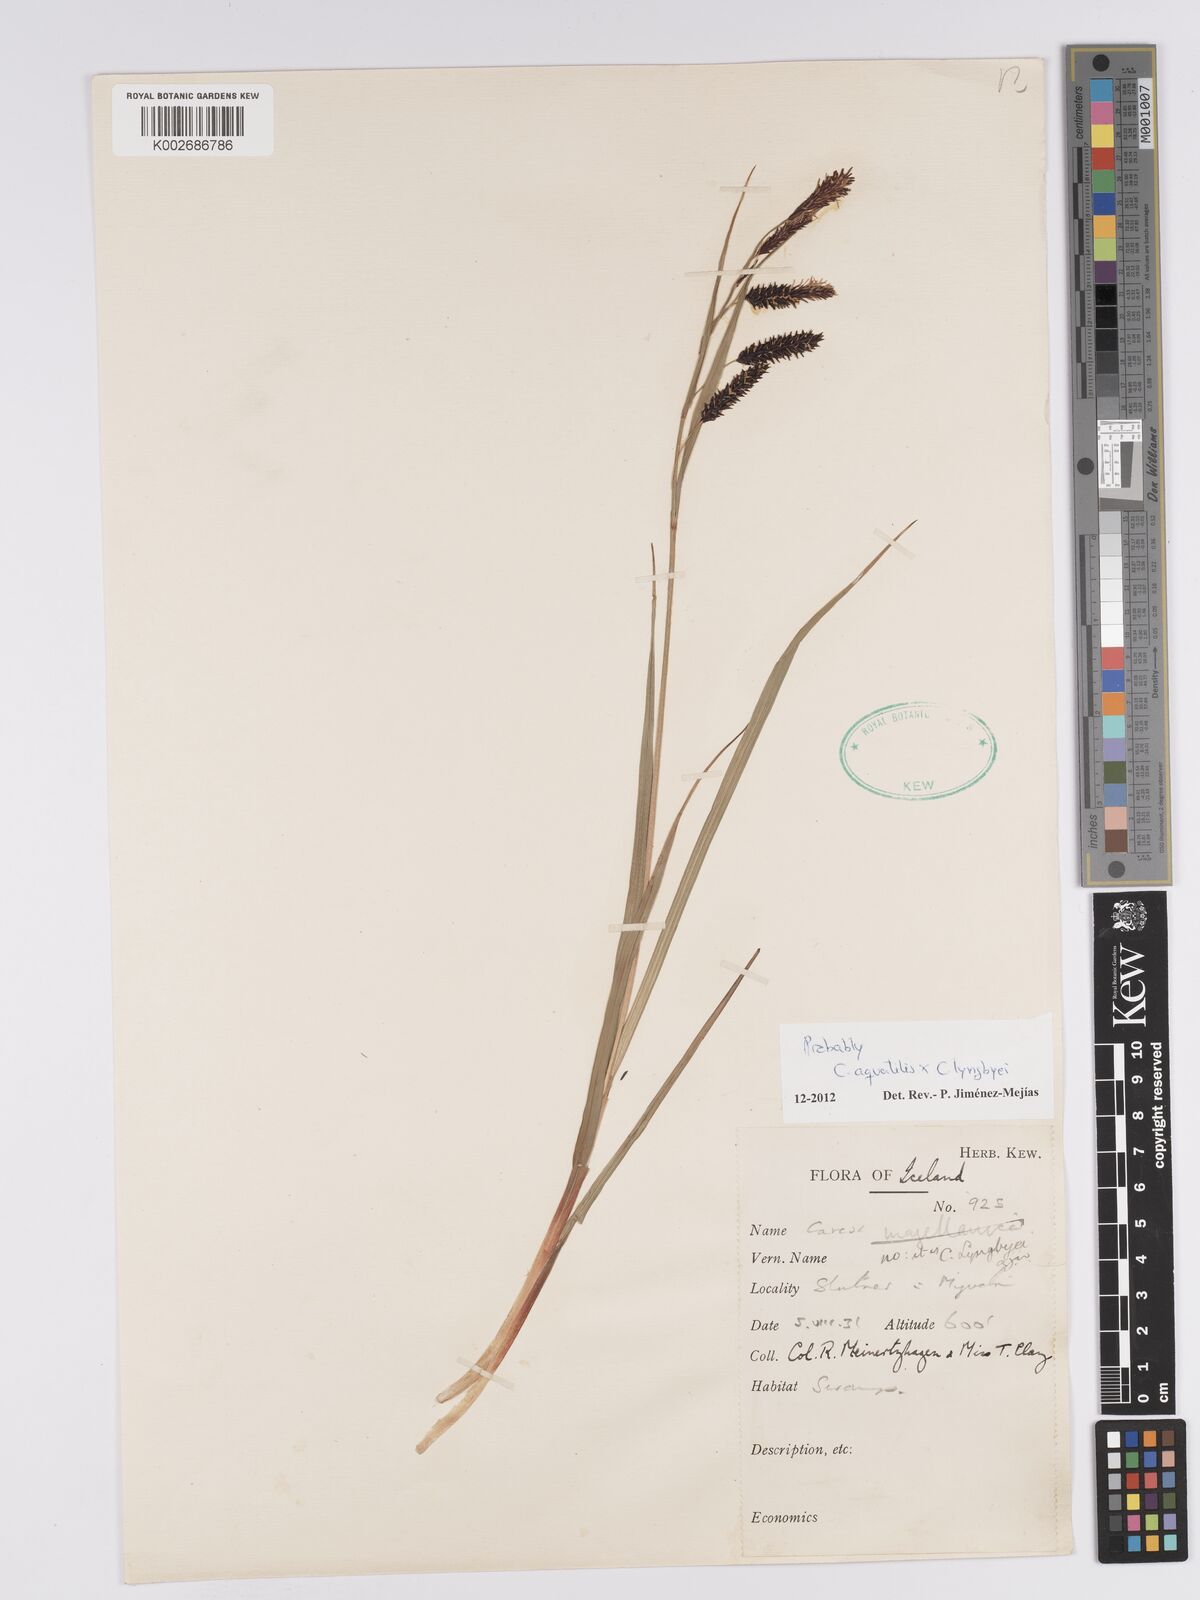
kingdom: Plantae
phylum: Tracheophyta
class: Liliopsida
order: Poales
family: Cyperaceae
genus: Carex
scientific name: Carex aquatilis
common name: Water sedge
